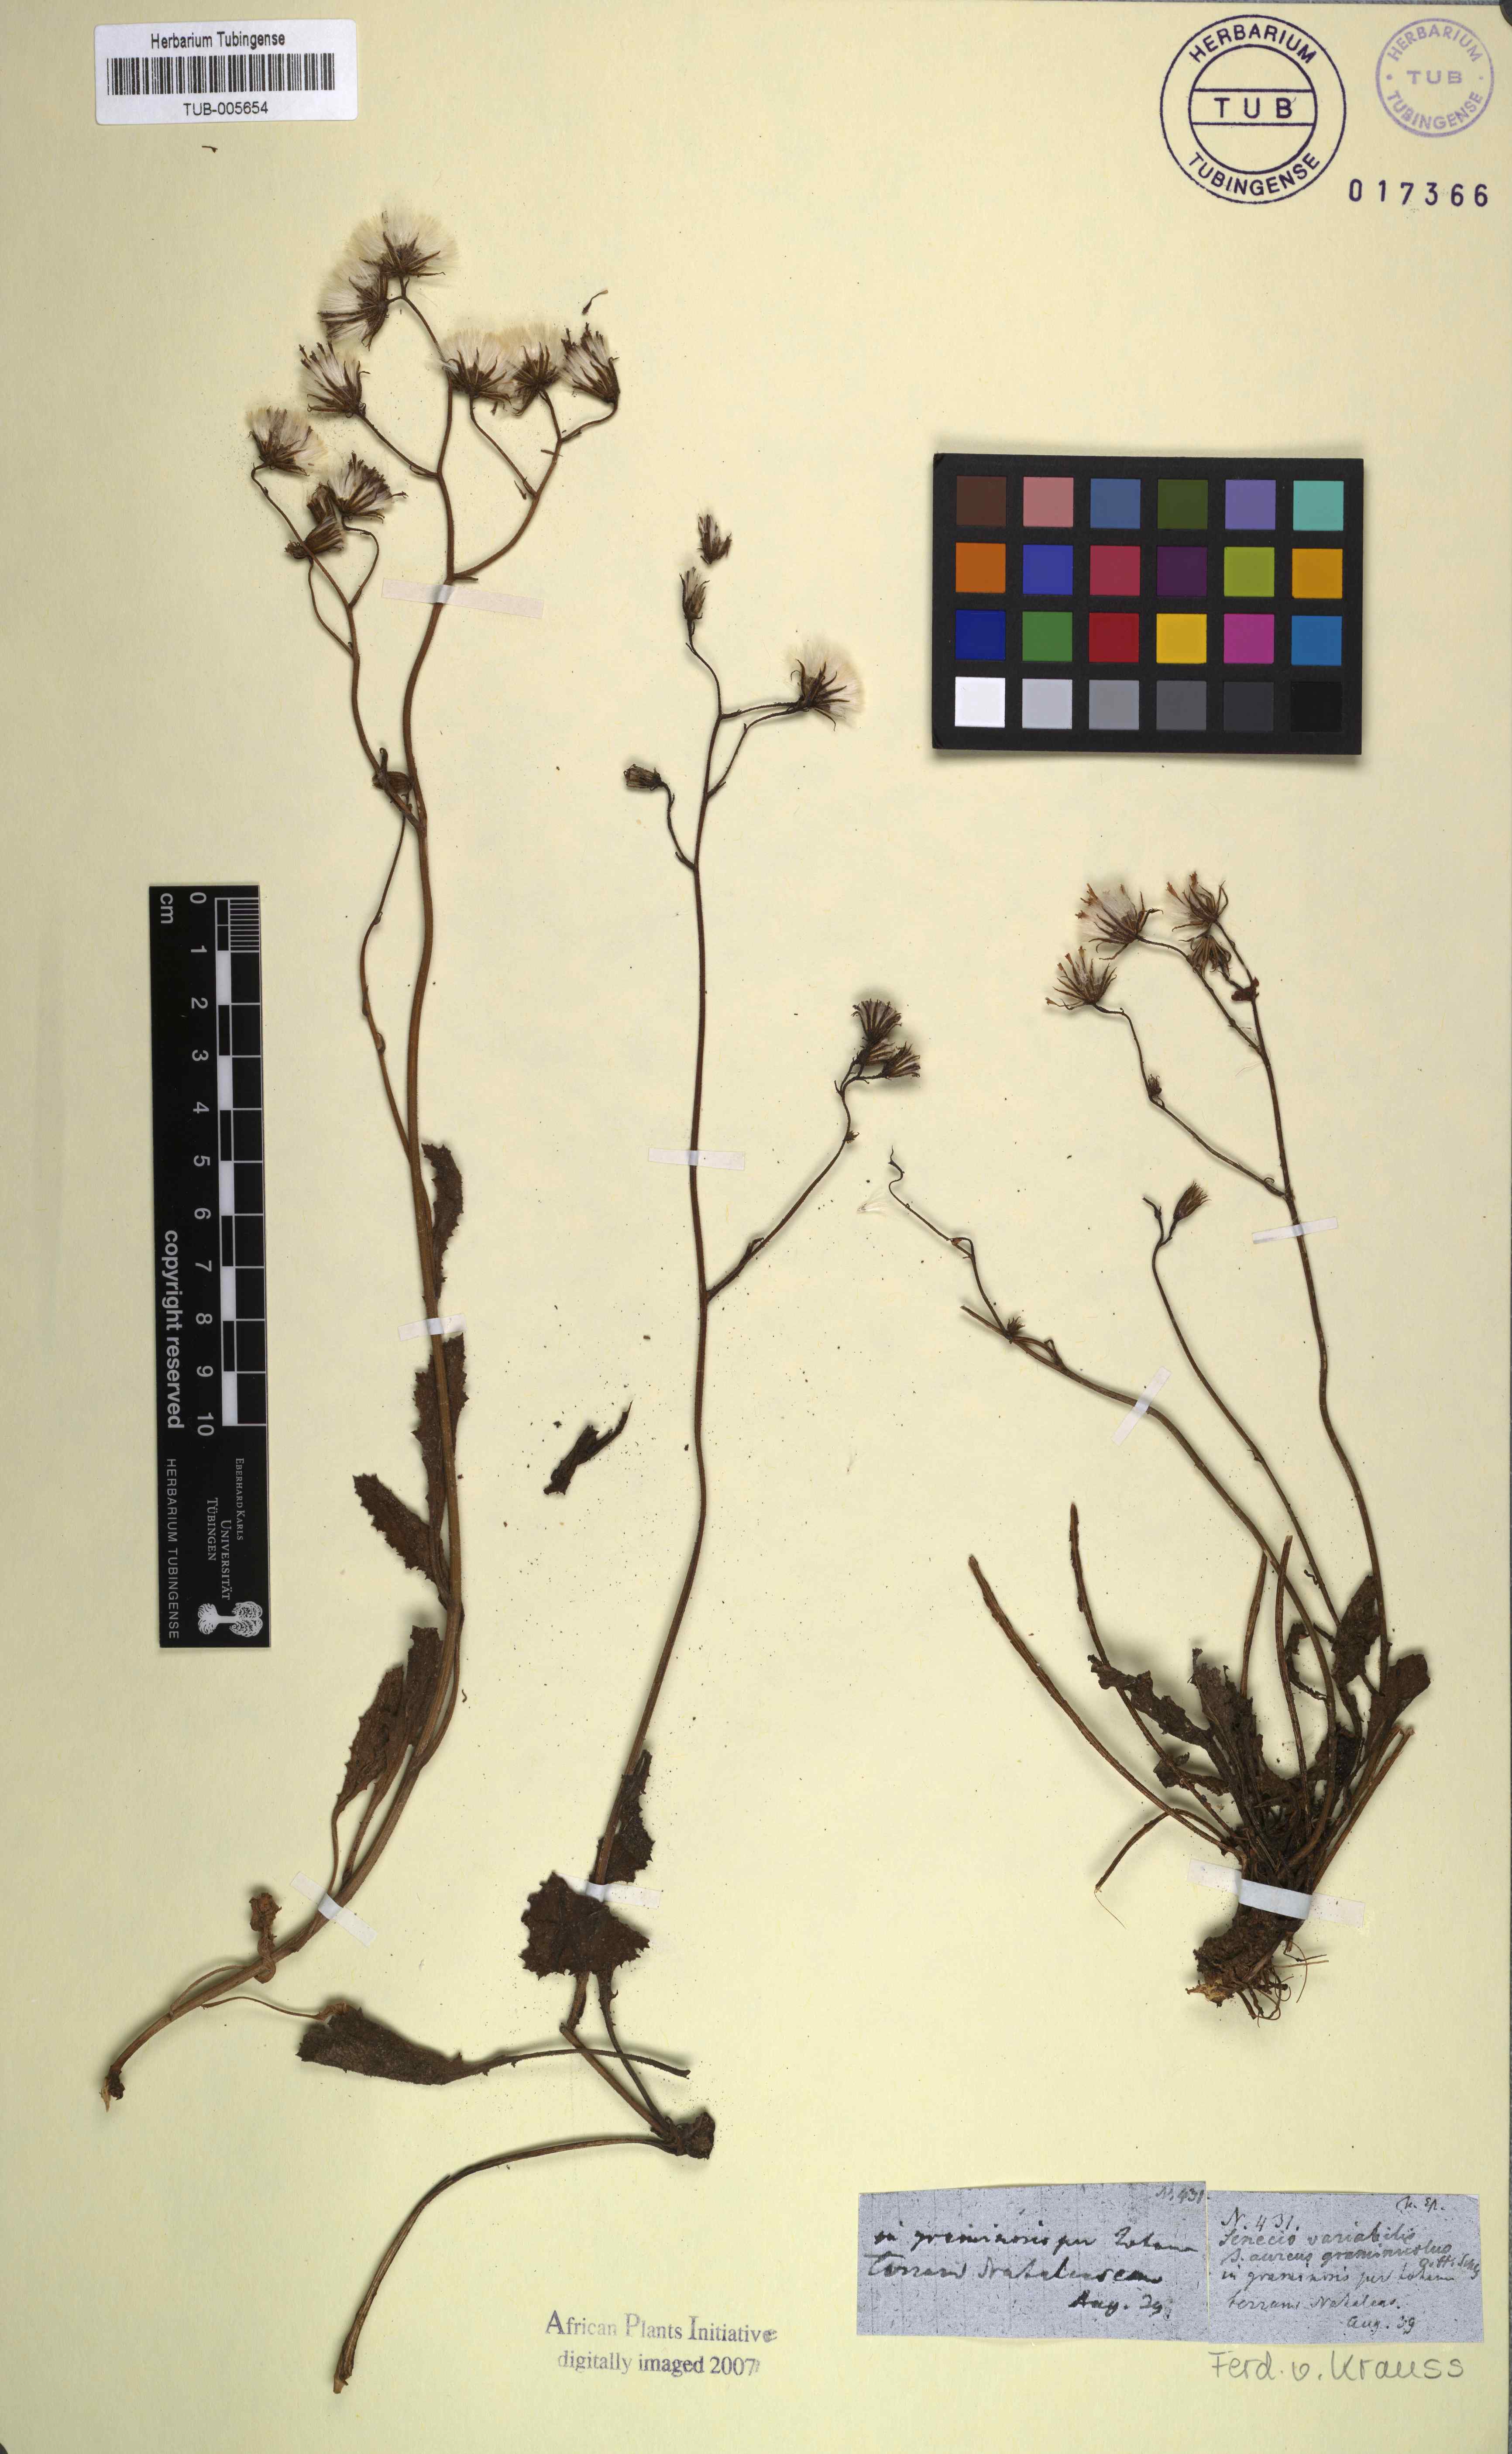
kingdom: Plantae
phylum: Tracheophyta
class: Magnoliopsida
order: Asterales
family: Asteraceae
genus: Senecio
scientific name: Senecio erubescens
